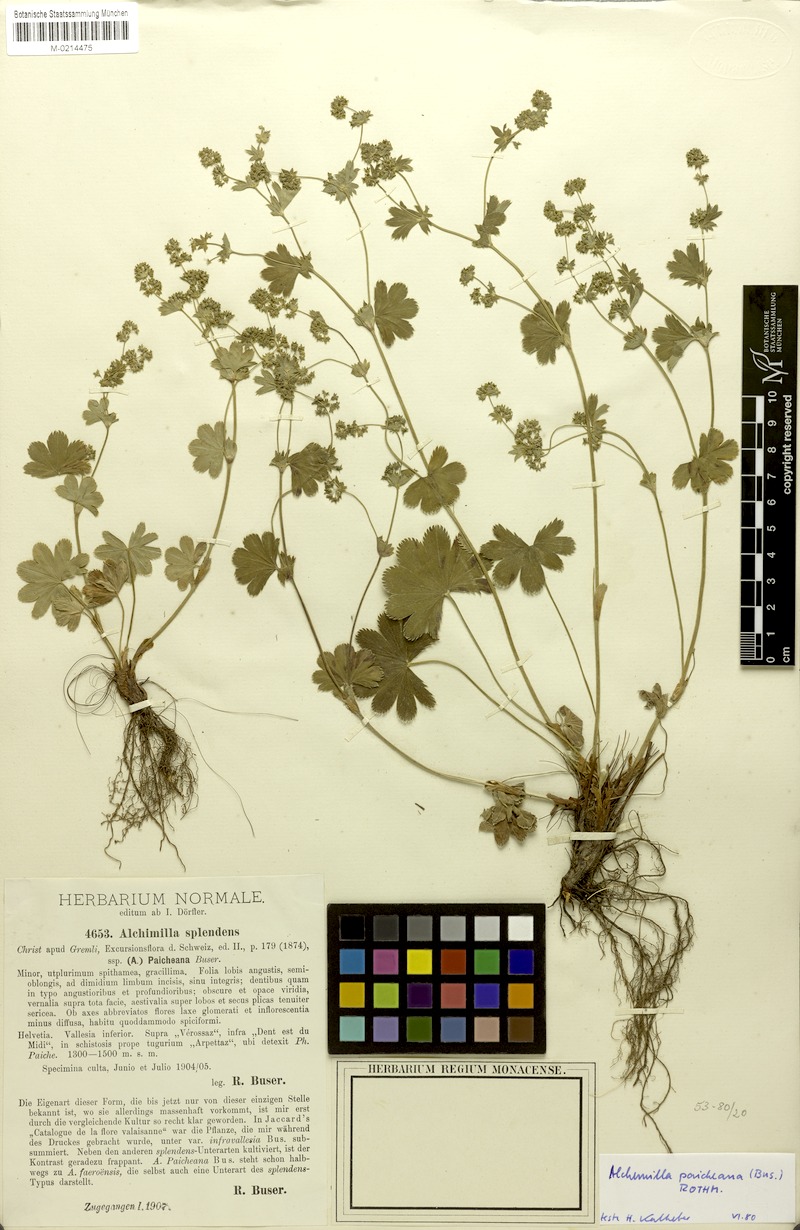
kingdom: Plantae
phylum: Tracheophyta
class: Magnoliopsida
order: Rosales
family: Rosaceae
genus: Alchemilla
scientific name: Alchemilla paicheana
